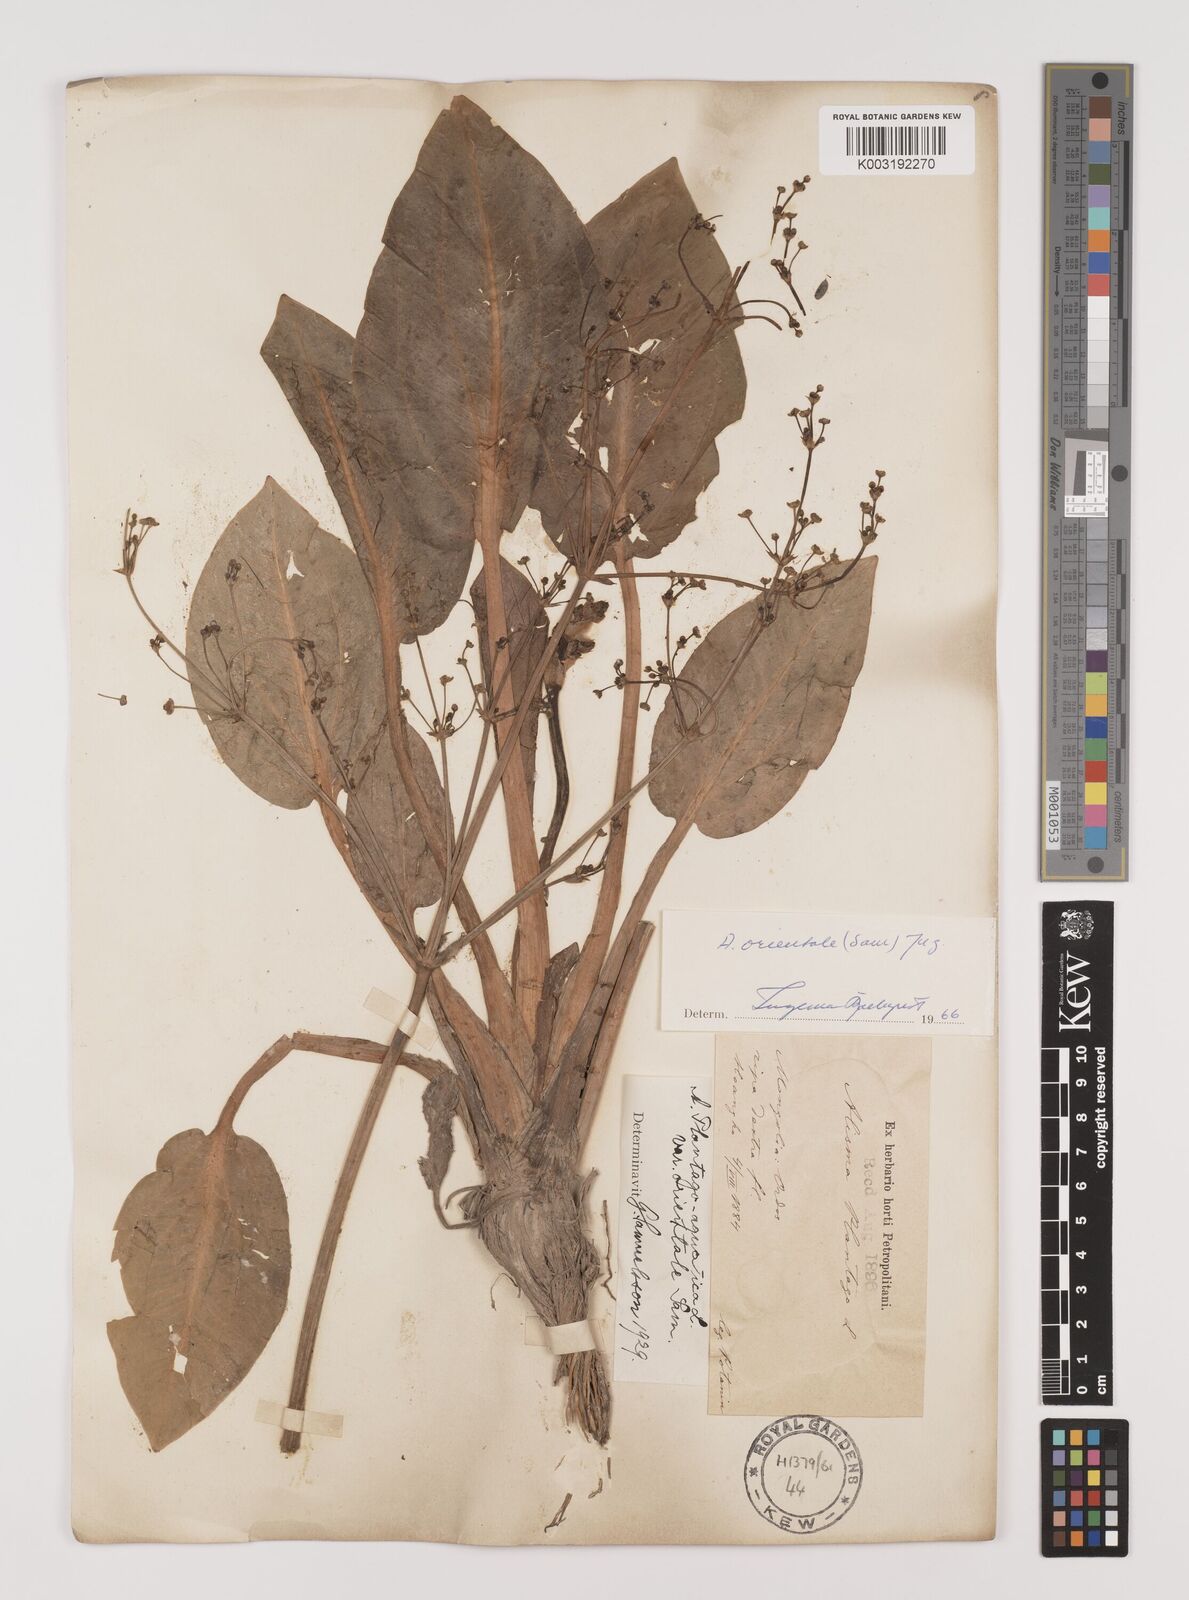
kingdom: Plantae
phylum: Tracheophyta
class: Liliopsida
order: Alismatales
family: Alismataceae
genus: Alisma
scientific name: Alisma plantago-aquatica
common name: Water-plantain
